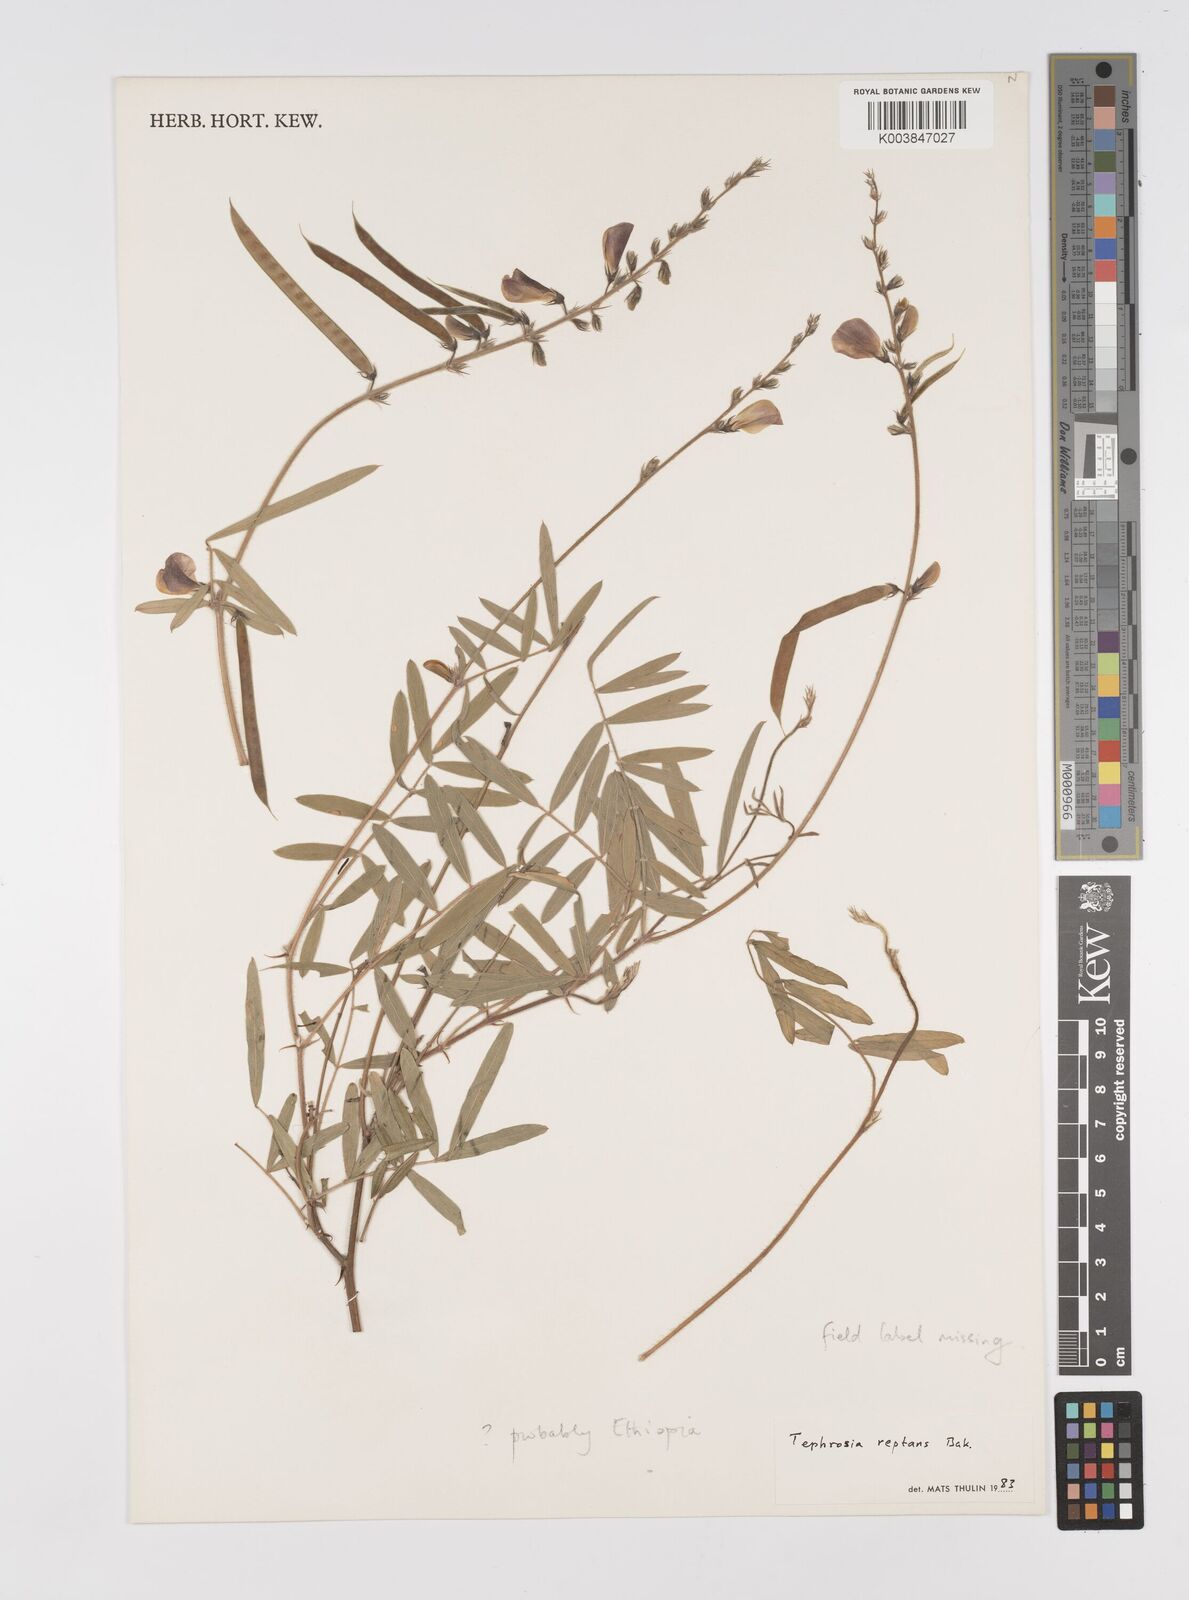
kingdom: Plantae
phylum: Tracheophyta
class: Magnoliopsida
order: Fabales
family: Fabaceae
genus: Tephrosia
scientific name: Tephrosia reptans
